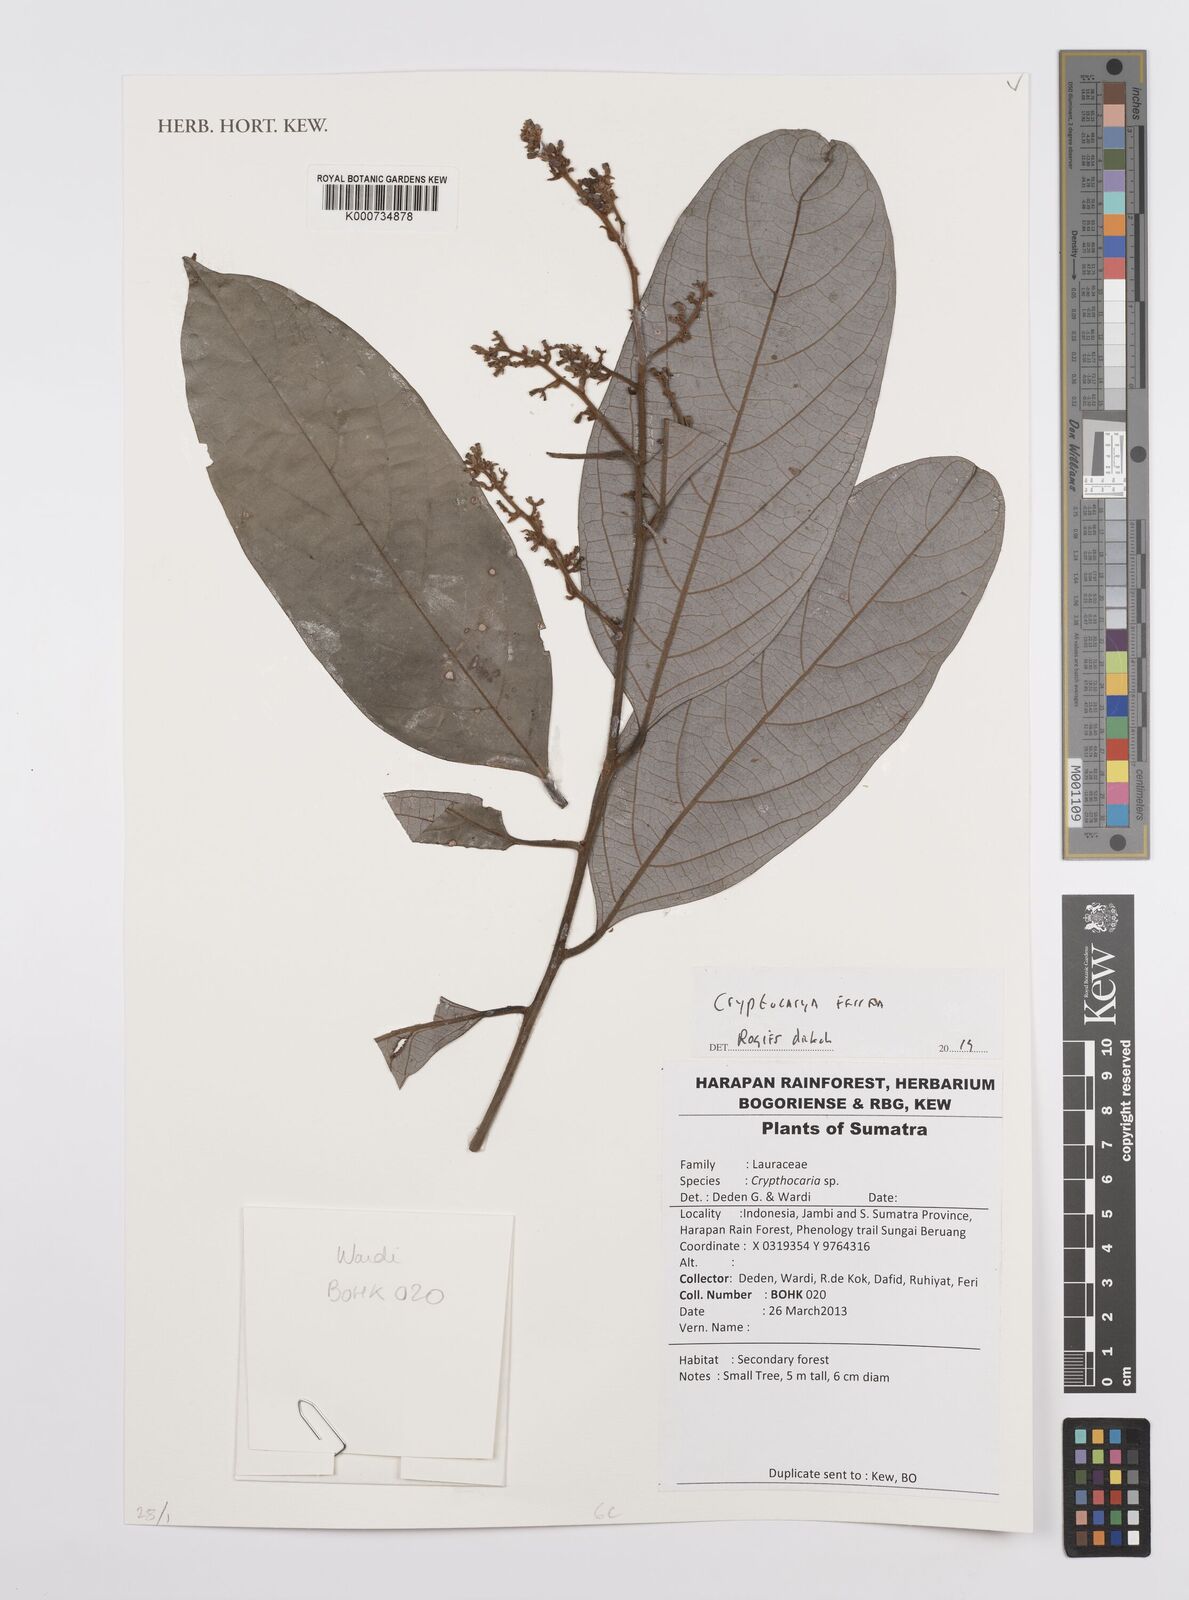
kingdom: Plantae
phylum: Tracheophyta
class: Magnoliopsida
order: Laurales
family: Lauraceae
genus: Cryptocarya
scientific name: Cryptocarya ferrea
